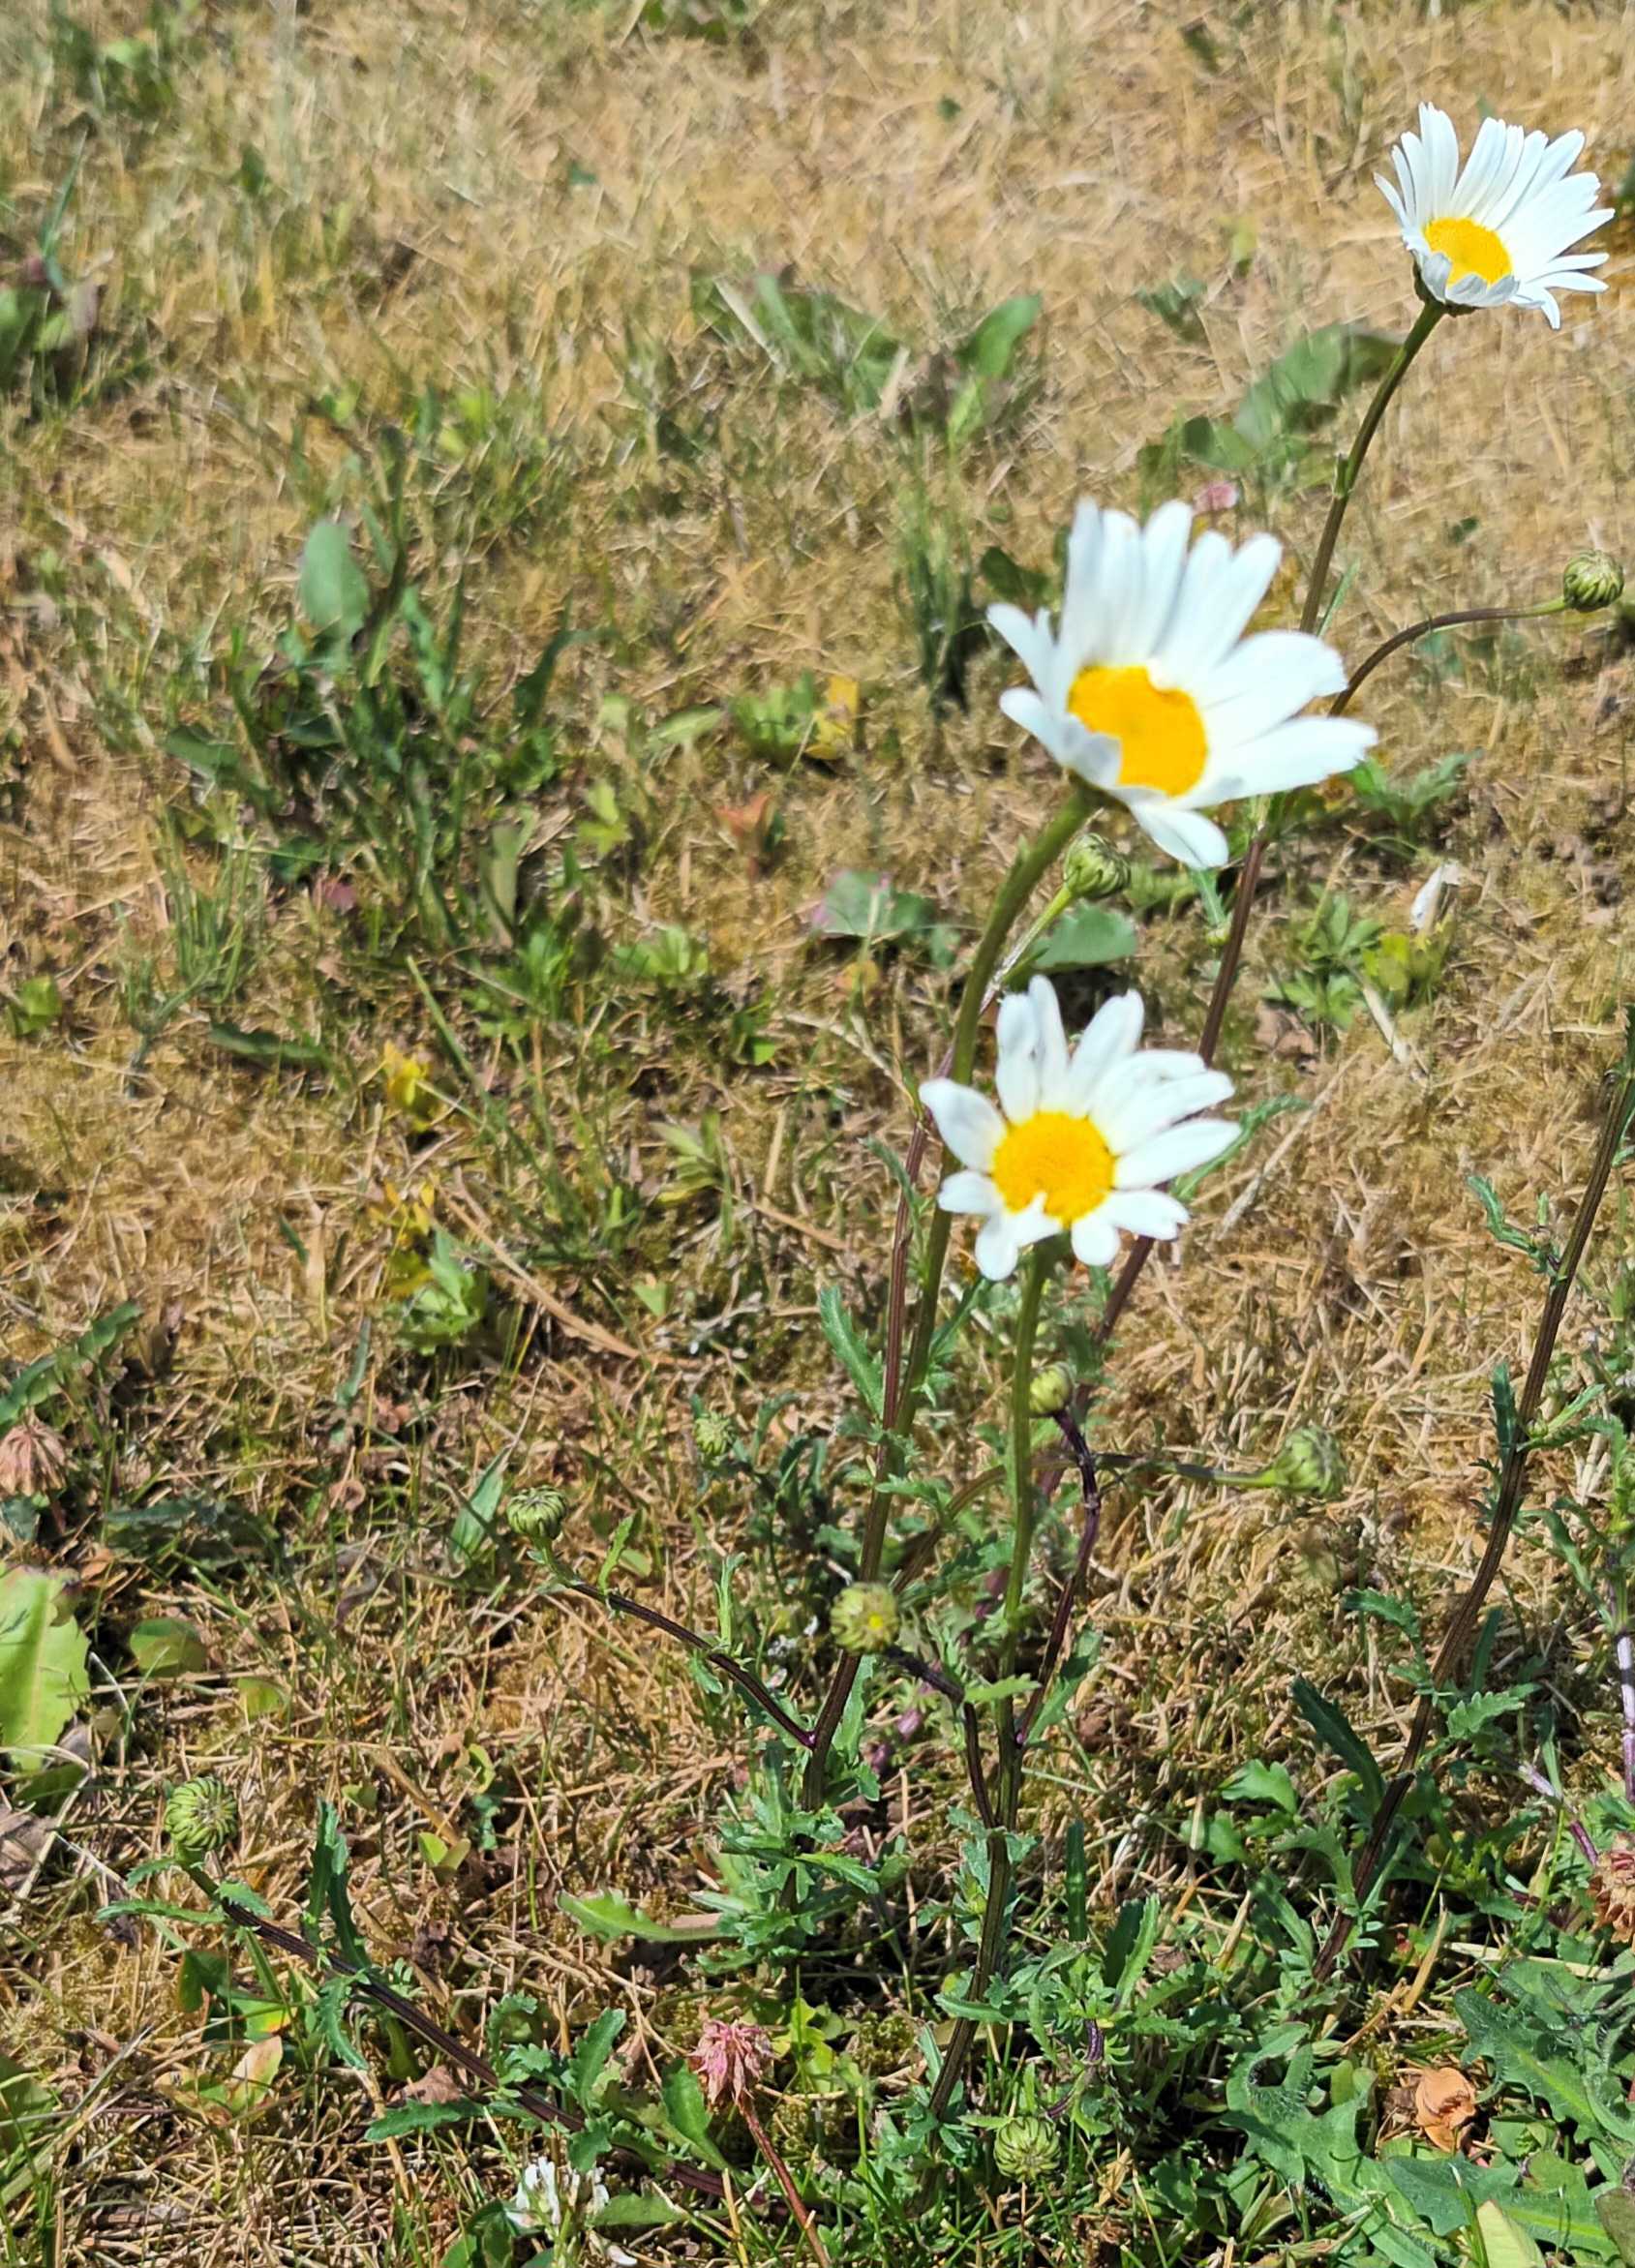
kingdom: Plantae
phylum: Tracheophyta
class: Magnoliopsida
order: Asterales
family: Asteraceae
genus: Leucanthemum
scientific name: Leucanthemum vulgare
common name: Hvid okseøje
